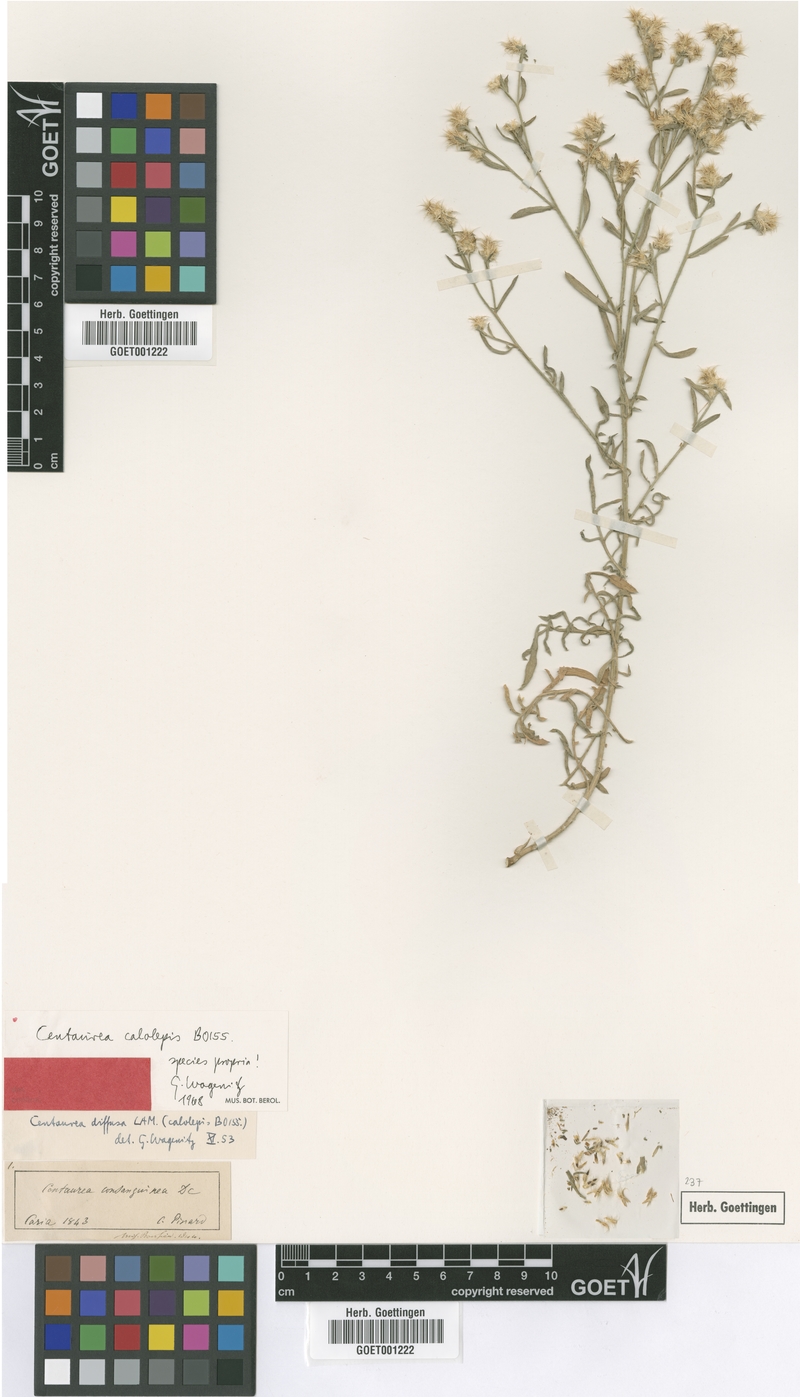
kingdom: Plantae
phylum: Tracheophyta
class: Magnoliopsida
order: Asterales
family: Asteraceae
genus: Centaurea
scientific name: Centaurea calolepis
